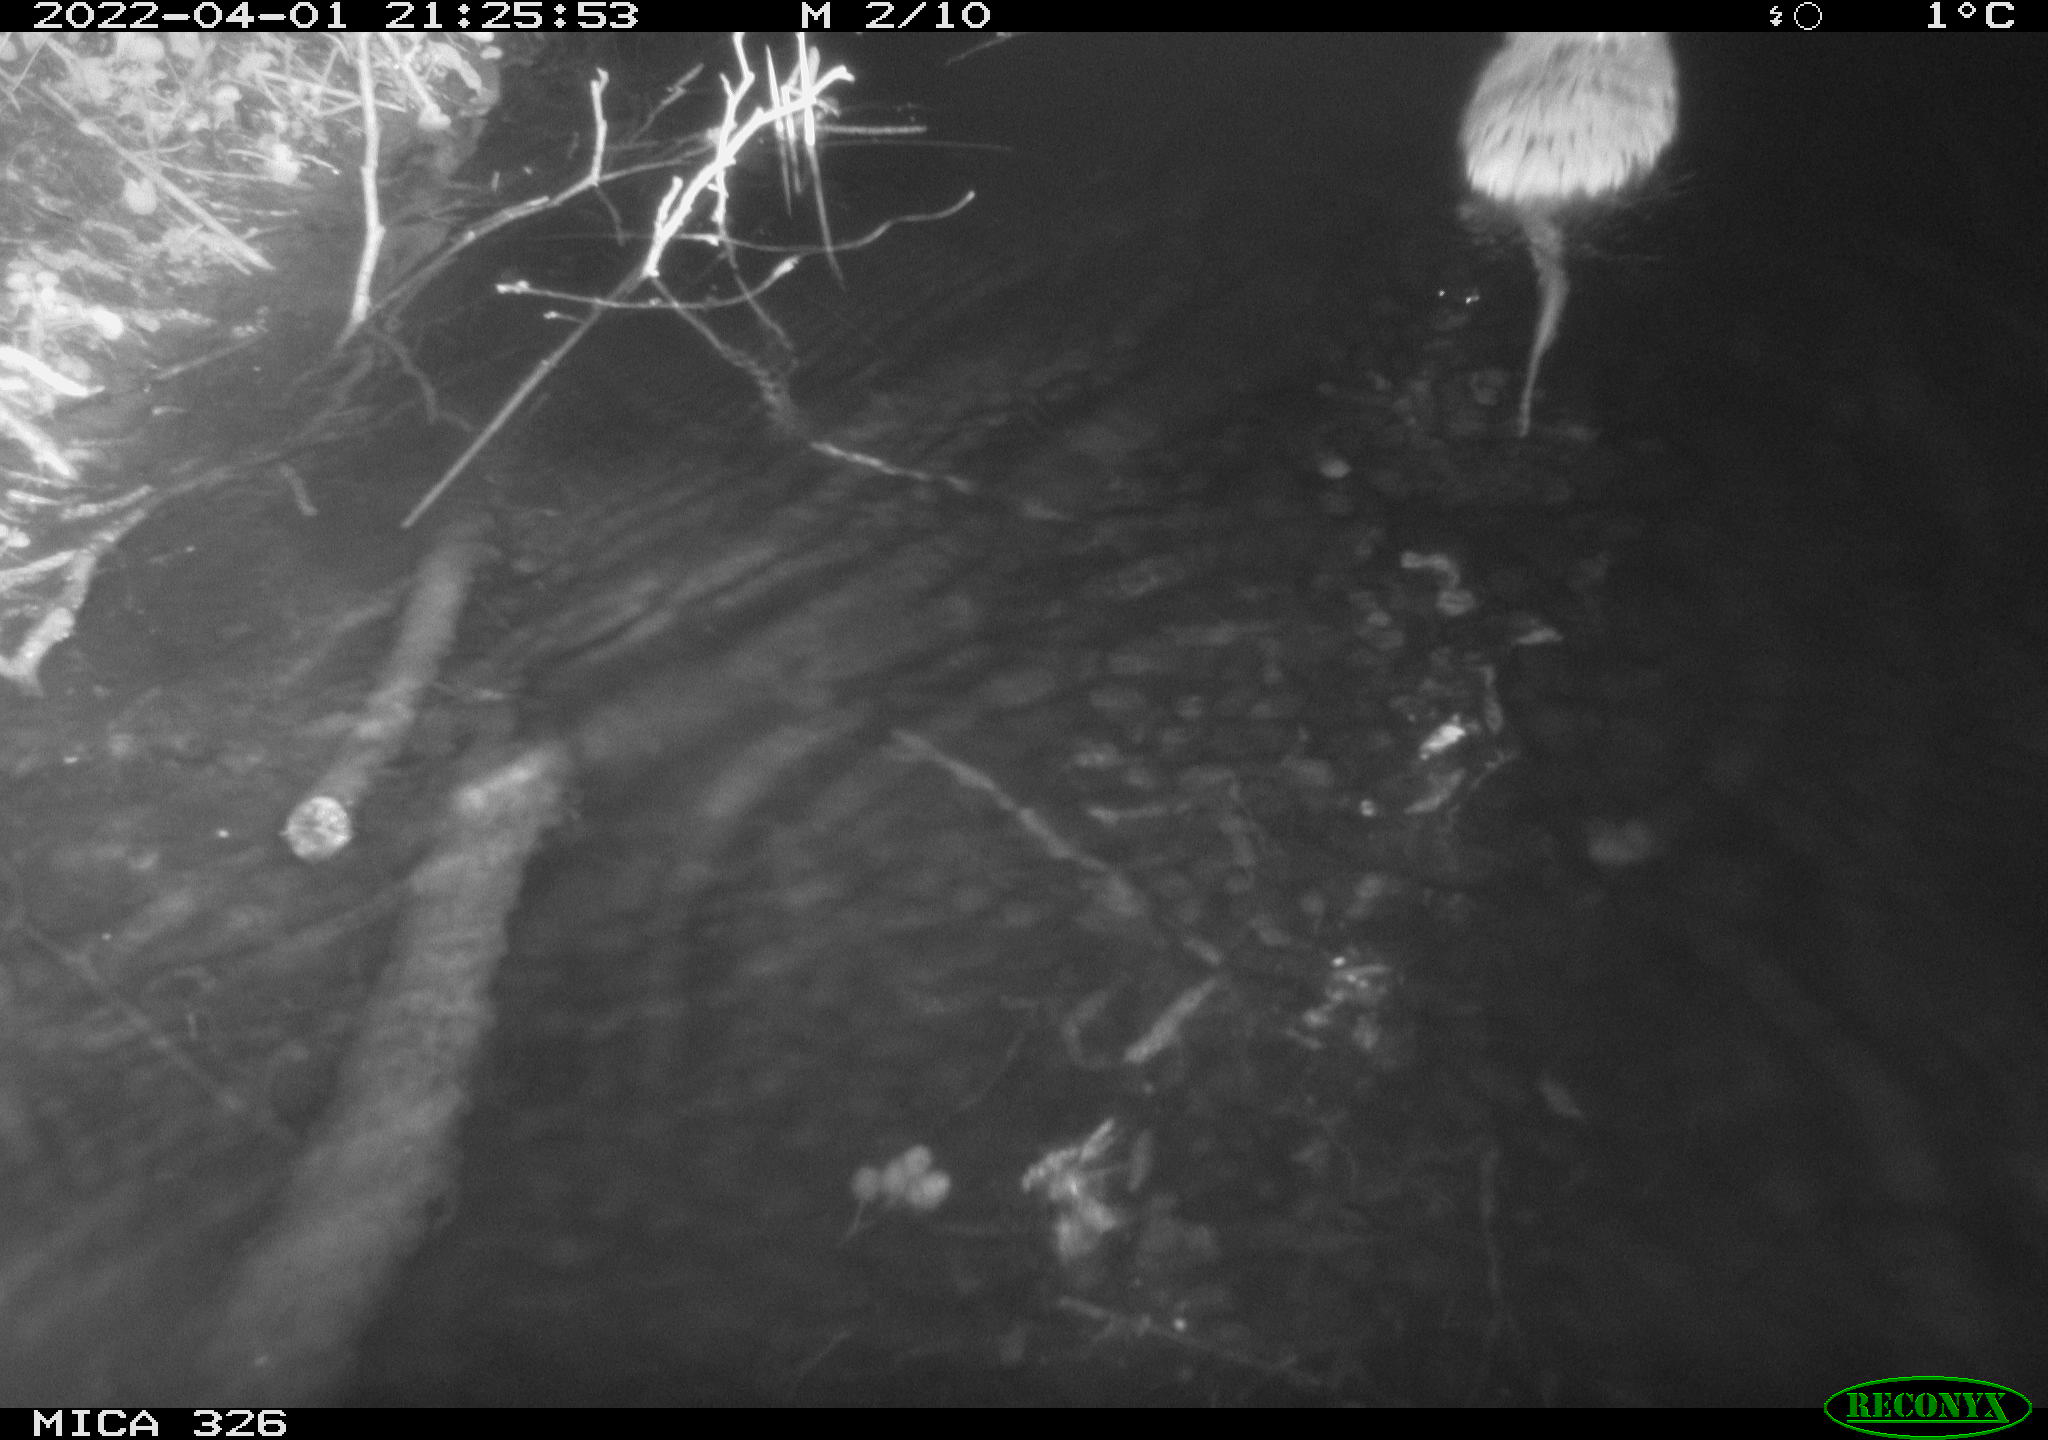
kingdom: Animalia
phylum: Chordata
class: Mammalia
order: Rodentia
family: Cricetidae
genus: Ondatra
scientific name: Ondatra zibethicus
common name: Muskrat
